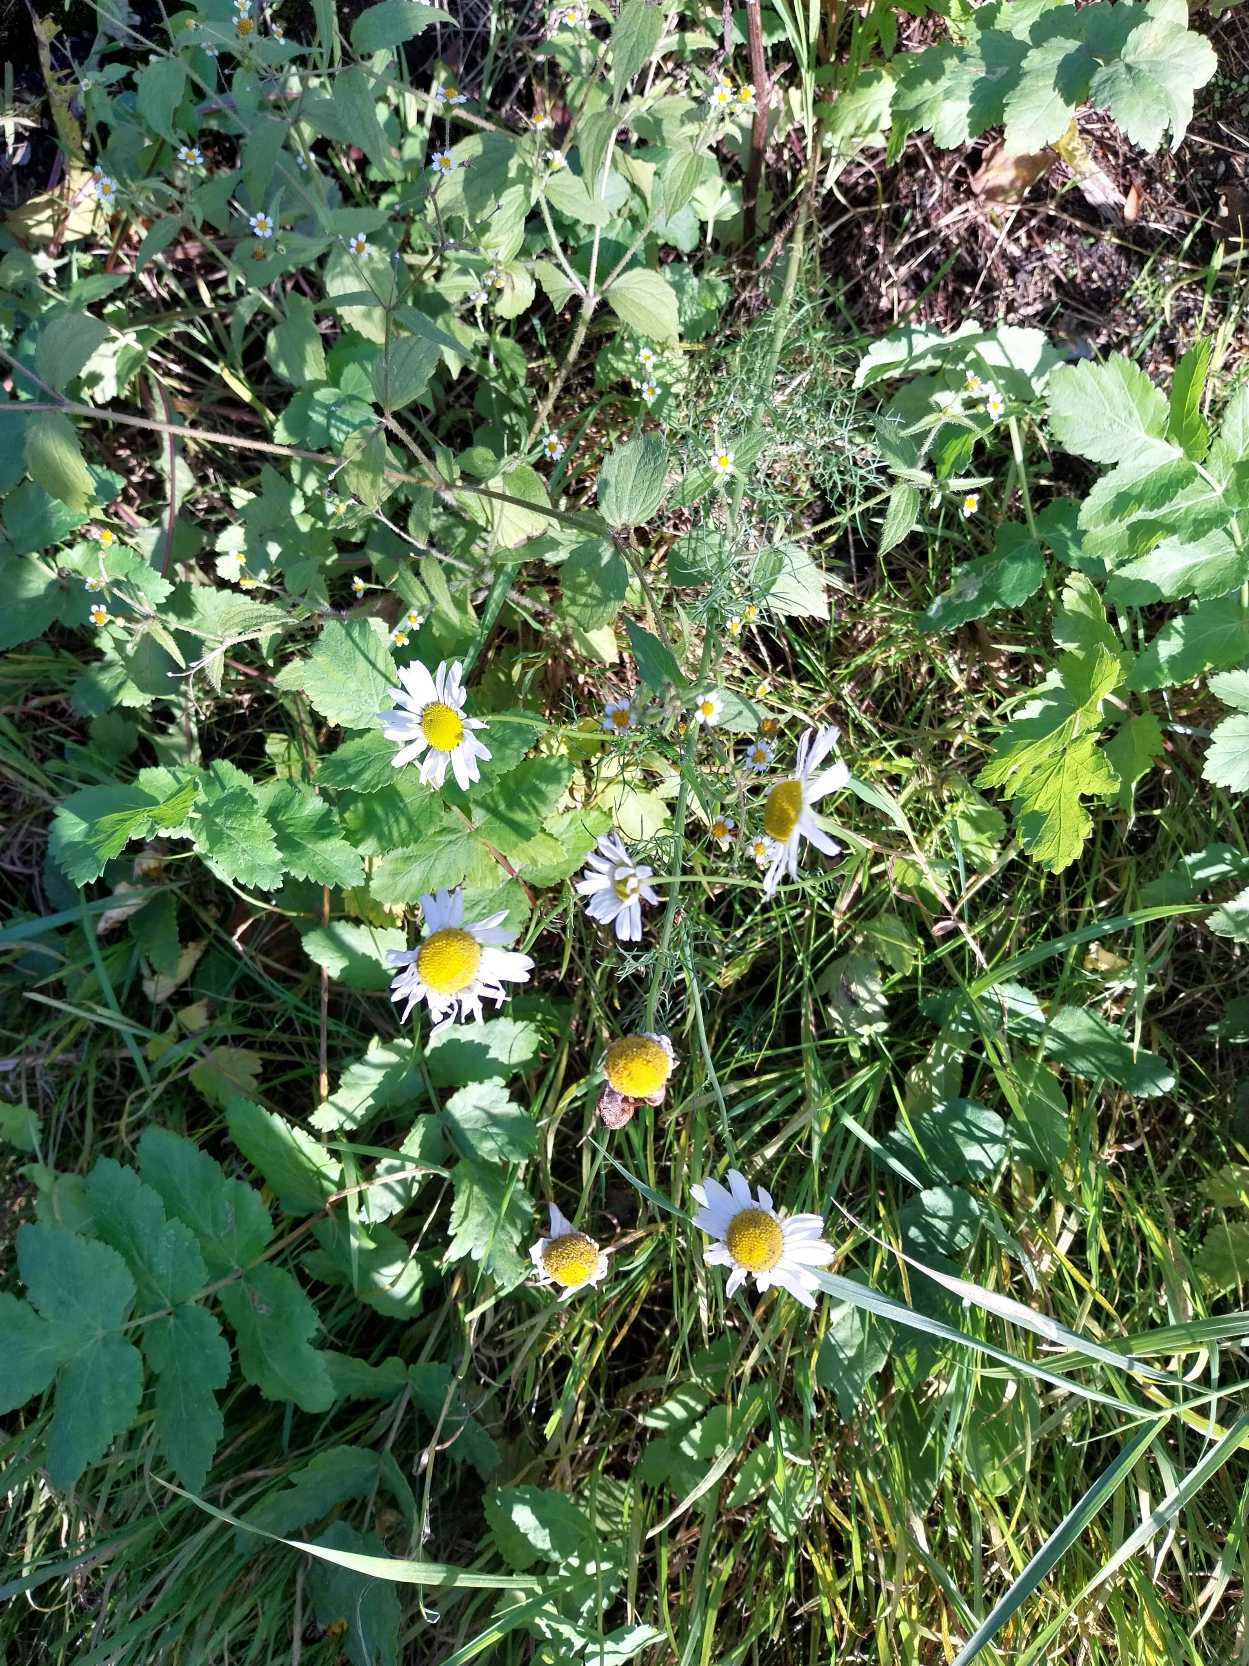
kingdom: Plantae
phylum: Tracheophyta
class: Magnoliopsida
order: Asterales
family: Asteraceae
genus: Tripleurospermum
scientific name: Tripleurospermum inodorum
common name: Lugtløs kamille
